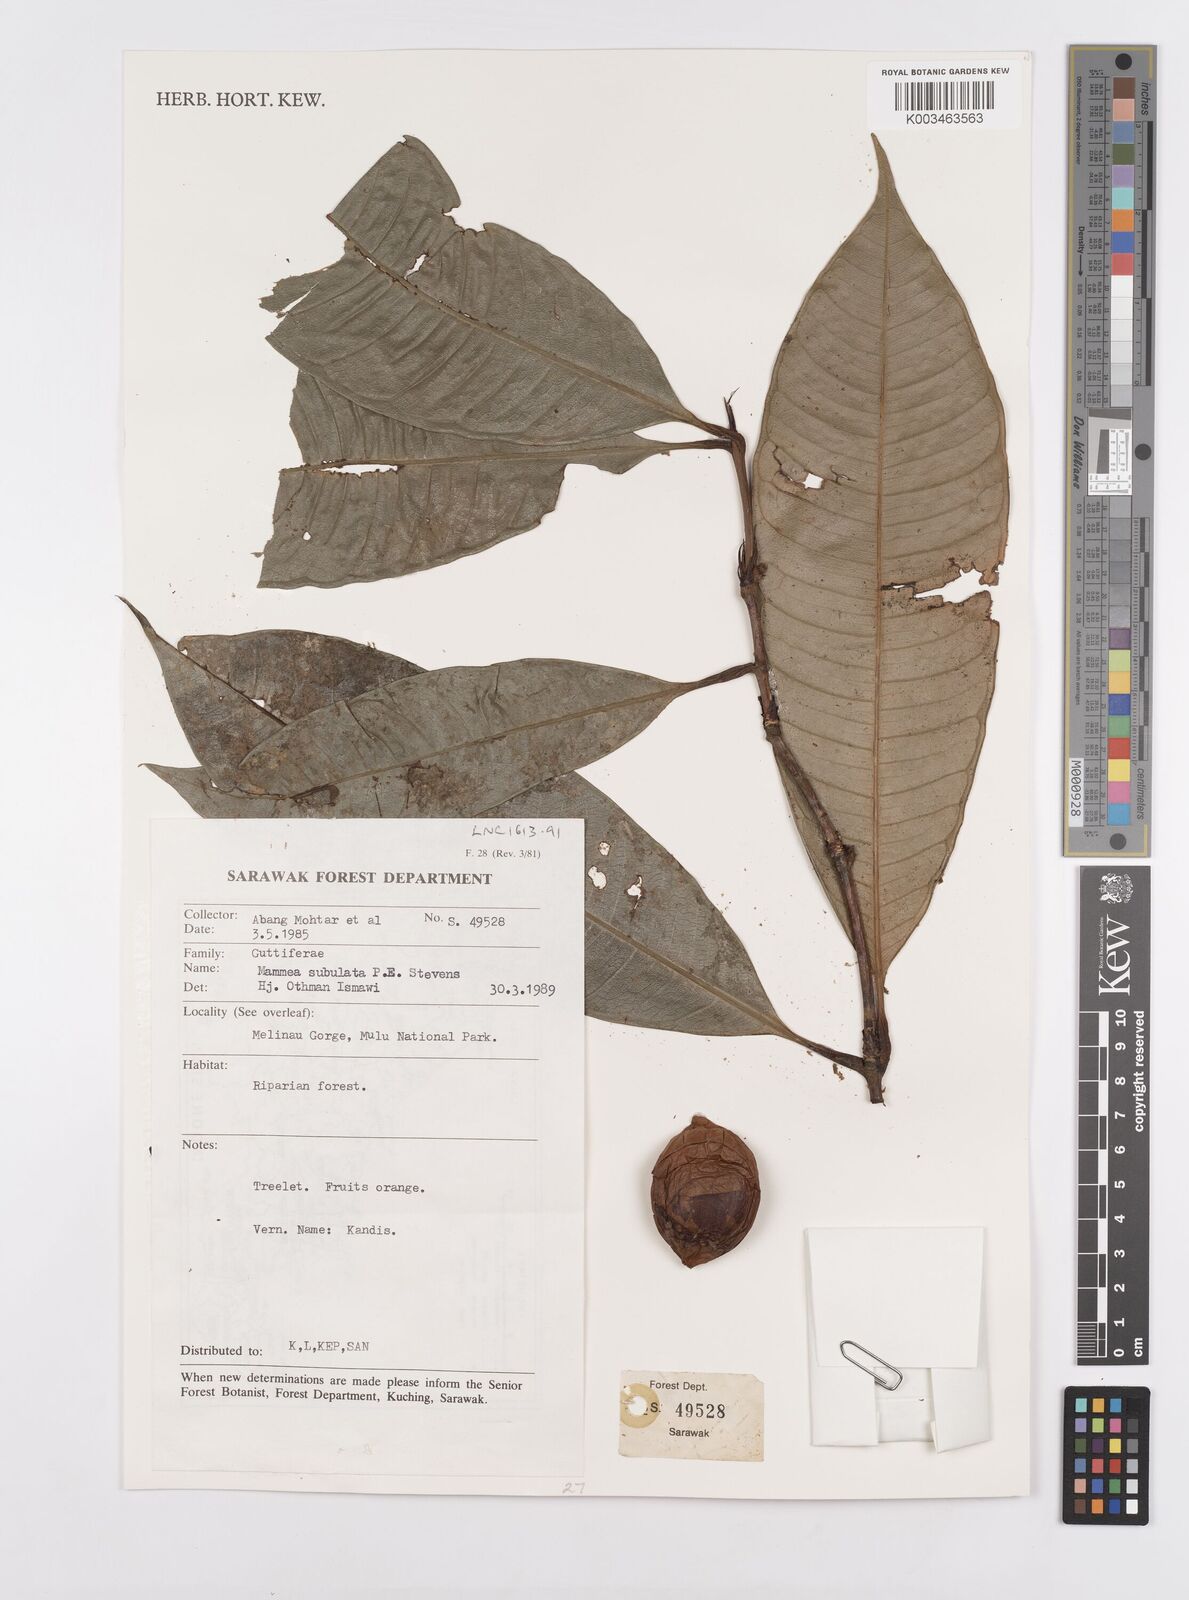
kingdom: Plantae
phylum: Tracheophyta
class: Magnoliopsida
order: Malpighiales
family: Calophyllaceae
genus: Mammea
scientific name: Mammea calciphila
